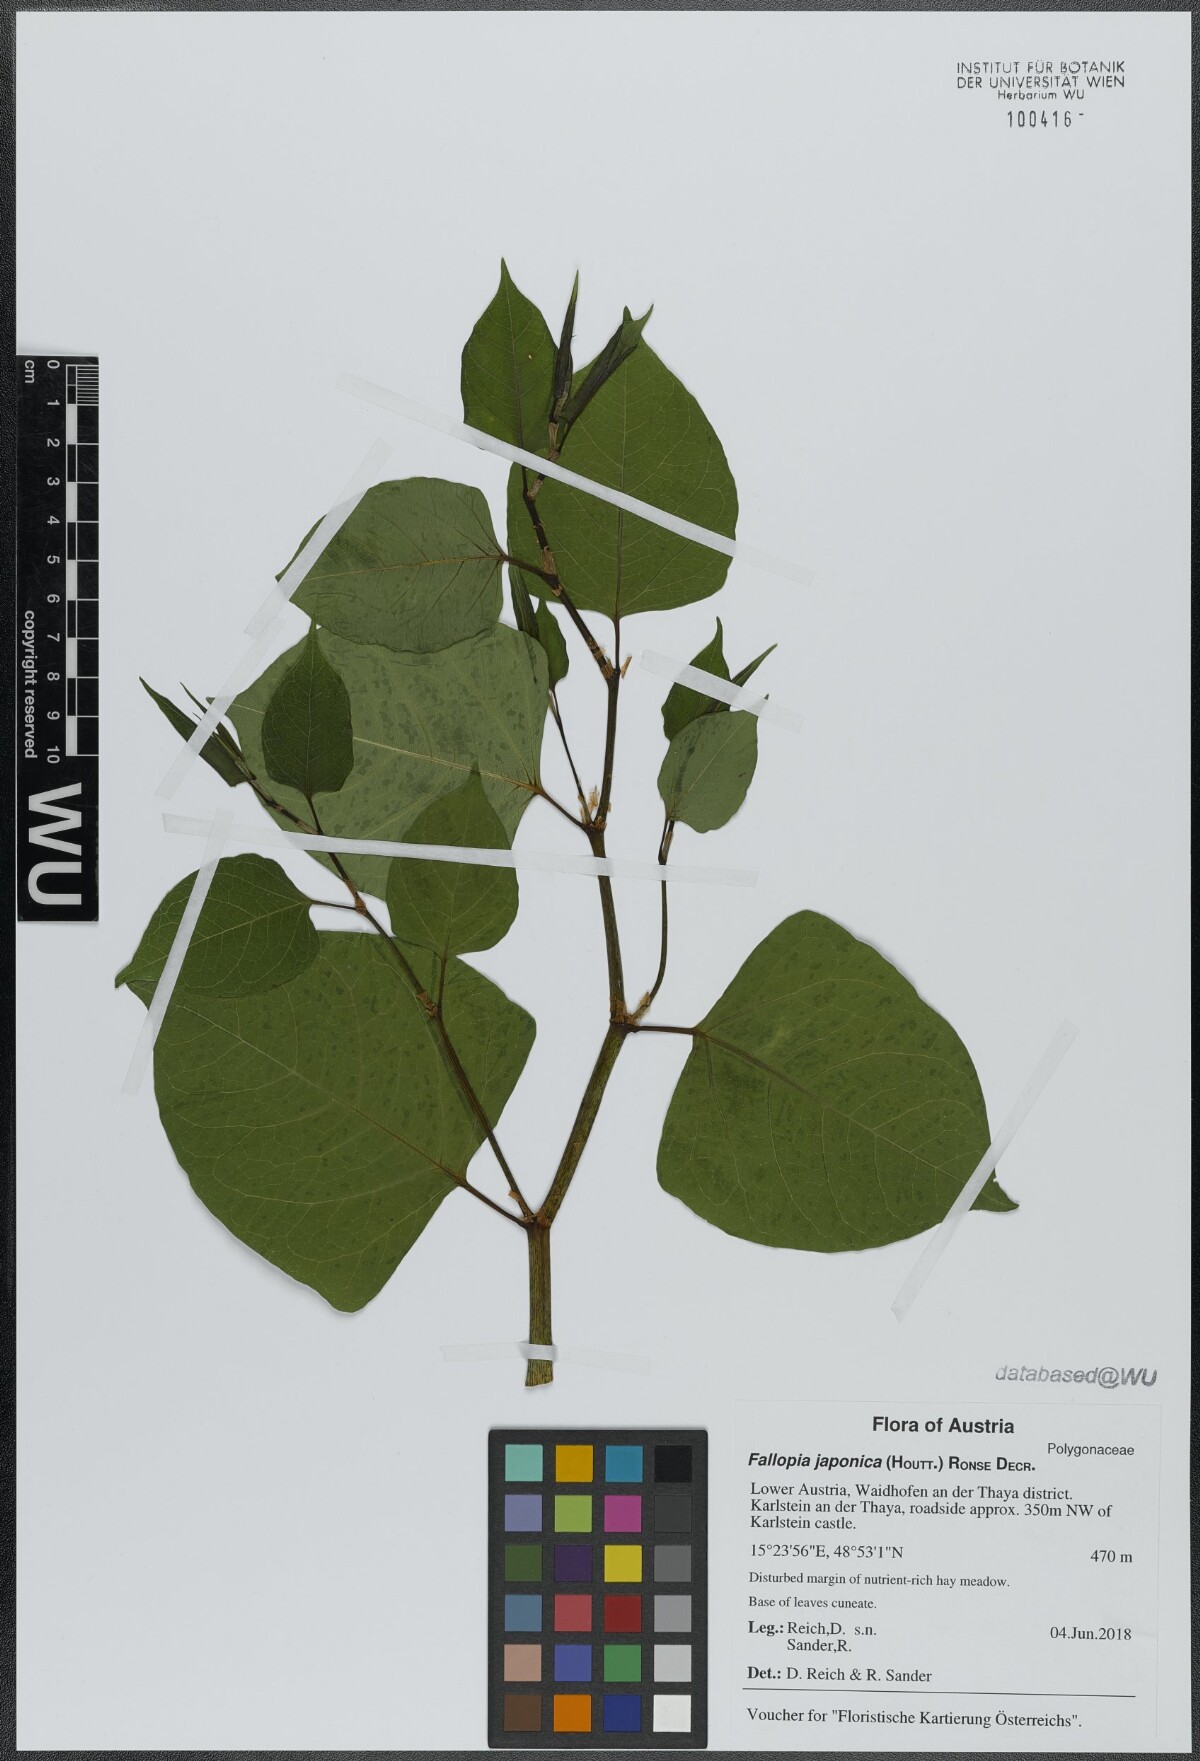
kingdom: Plantae
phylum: Tracheophyta
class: Magnoliopsida
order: Caryophyllales
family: Polygonaceae
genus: Reynoutria
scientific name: Reynoutria bohemica
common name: Bohemian knotweed
